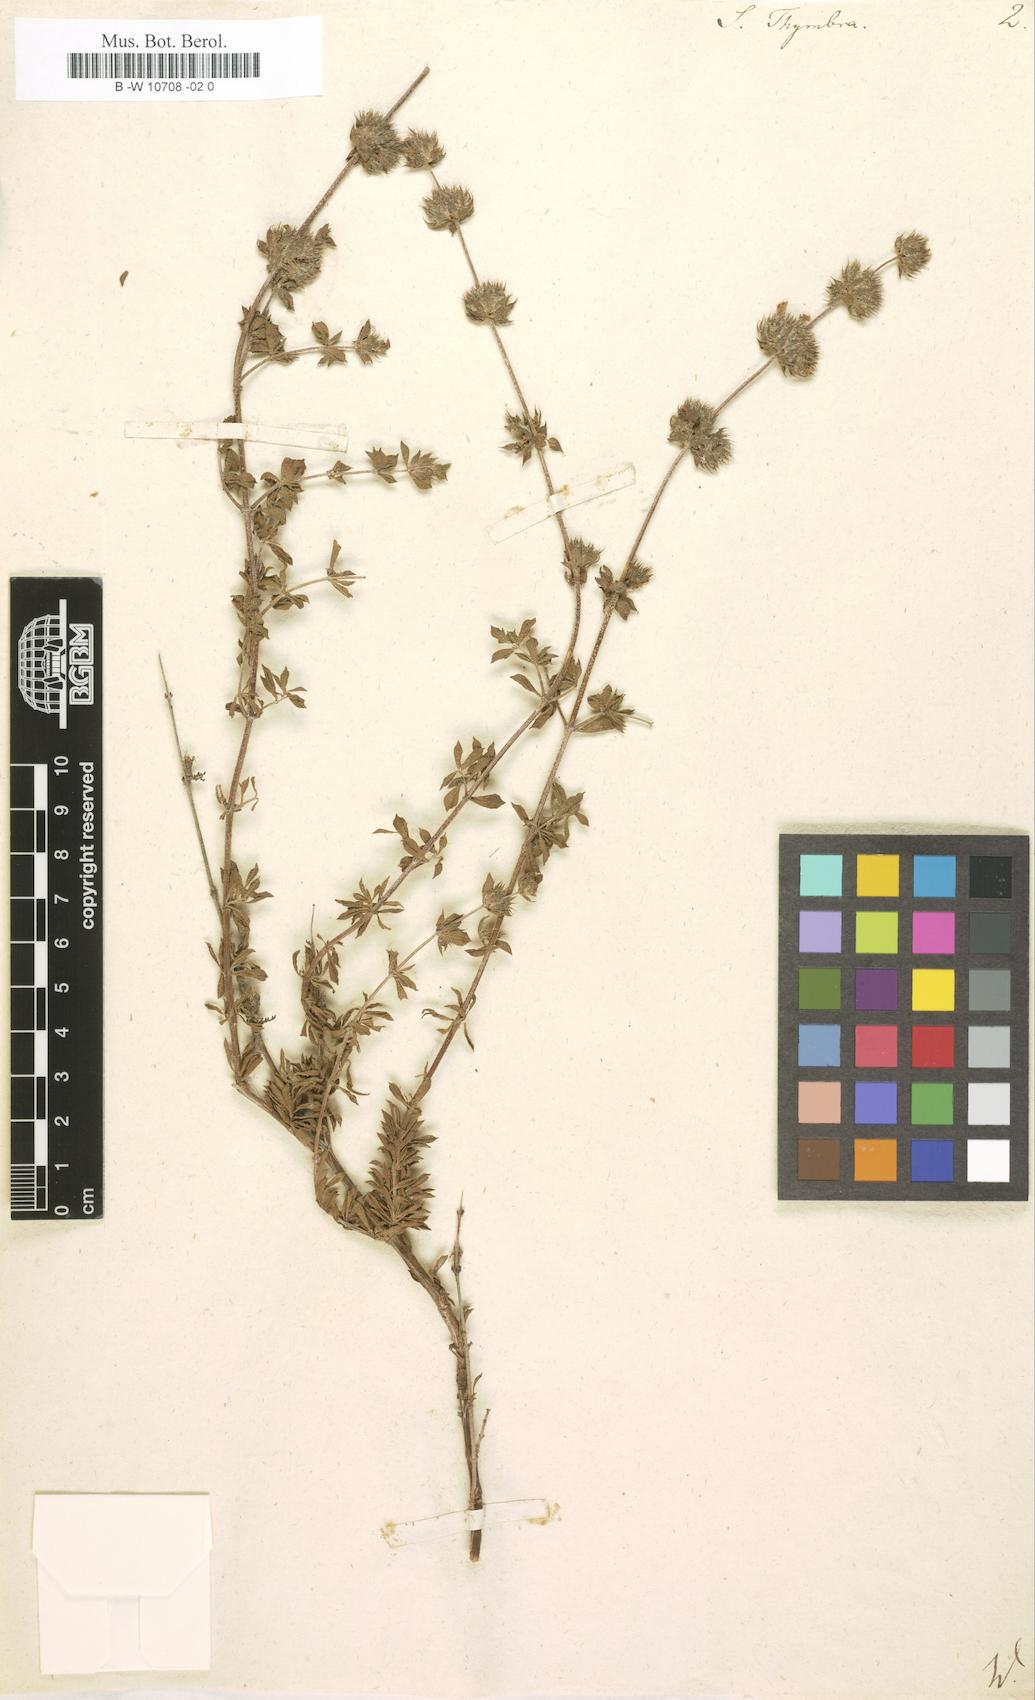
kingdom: Plantae
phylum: Tracheophyta
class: Magnoliopsida
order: Lamiales
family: Lamiaceae
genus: Satureja
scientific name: Satureja thymbra
